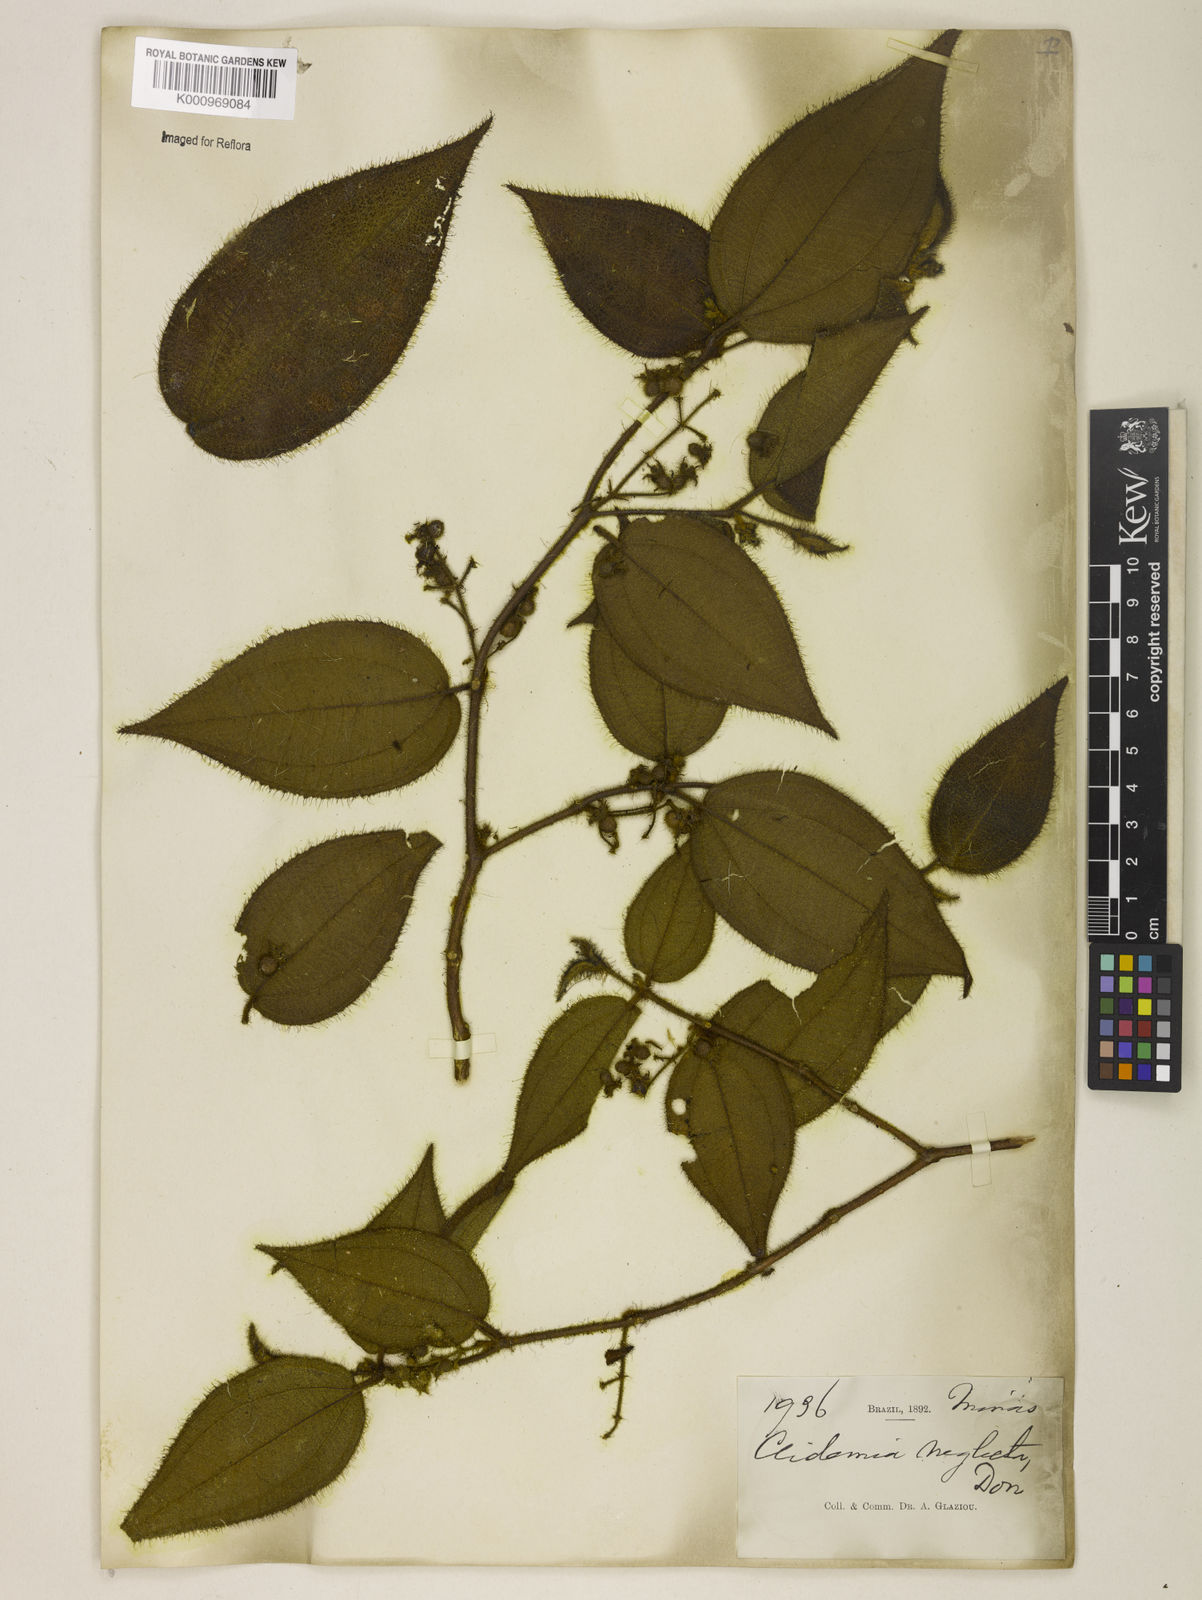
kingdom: Plantae
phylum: Tracheophyta
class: Magnoliopsida
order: Myrtales
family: Melastomataceae
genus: Miconia
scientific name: Miconia dependens
